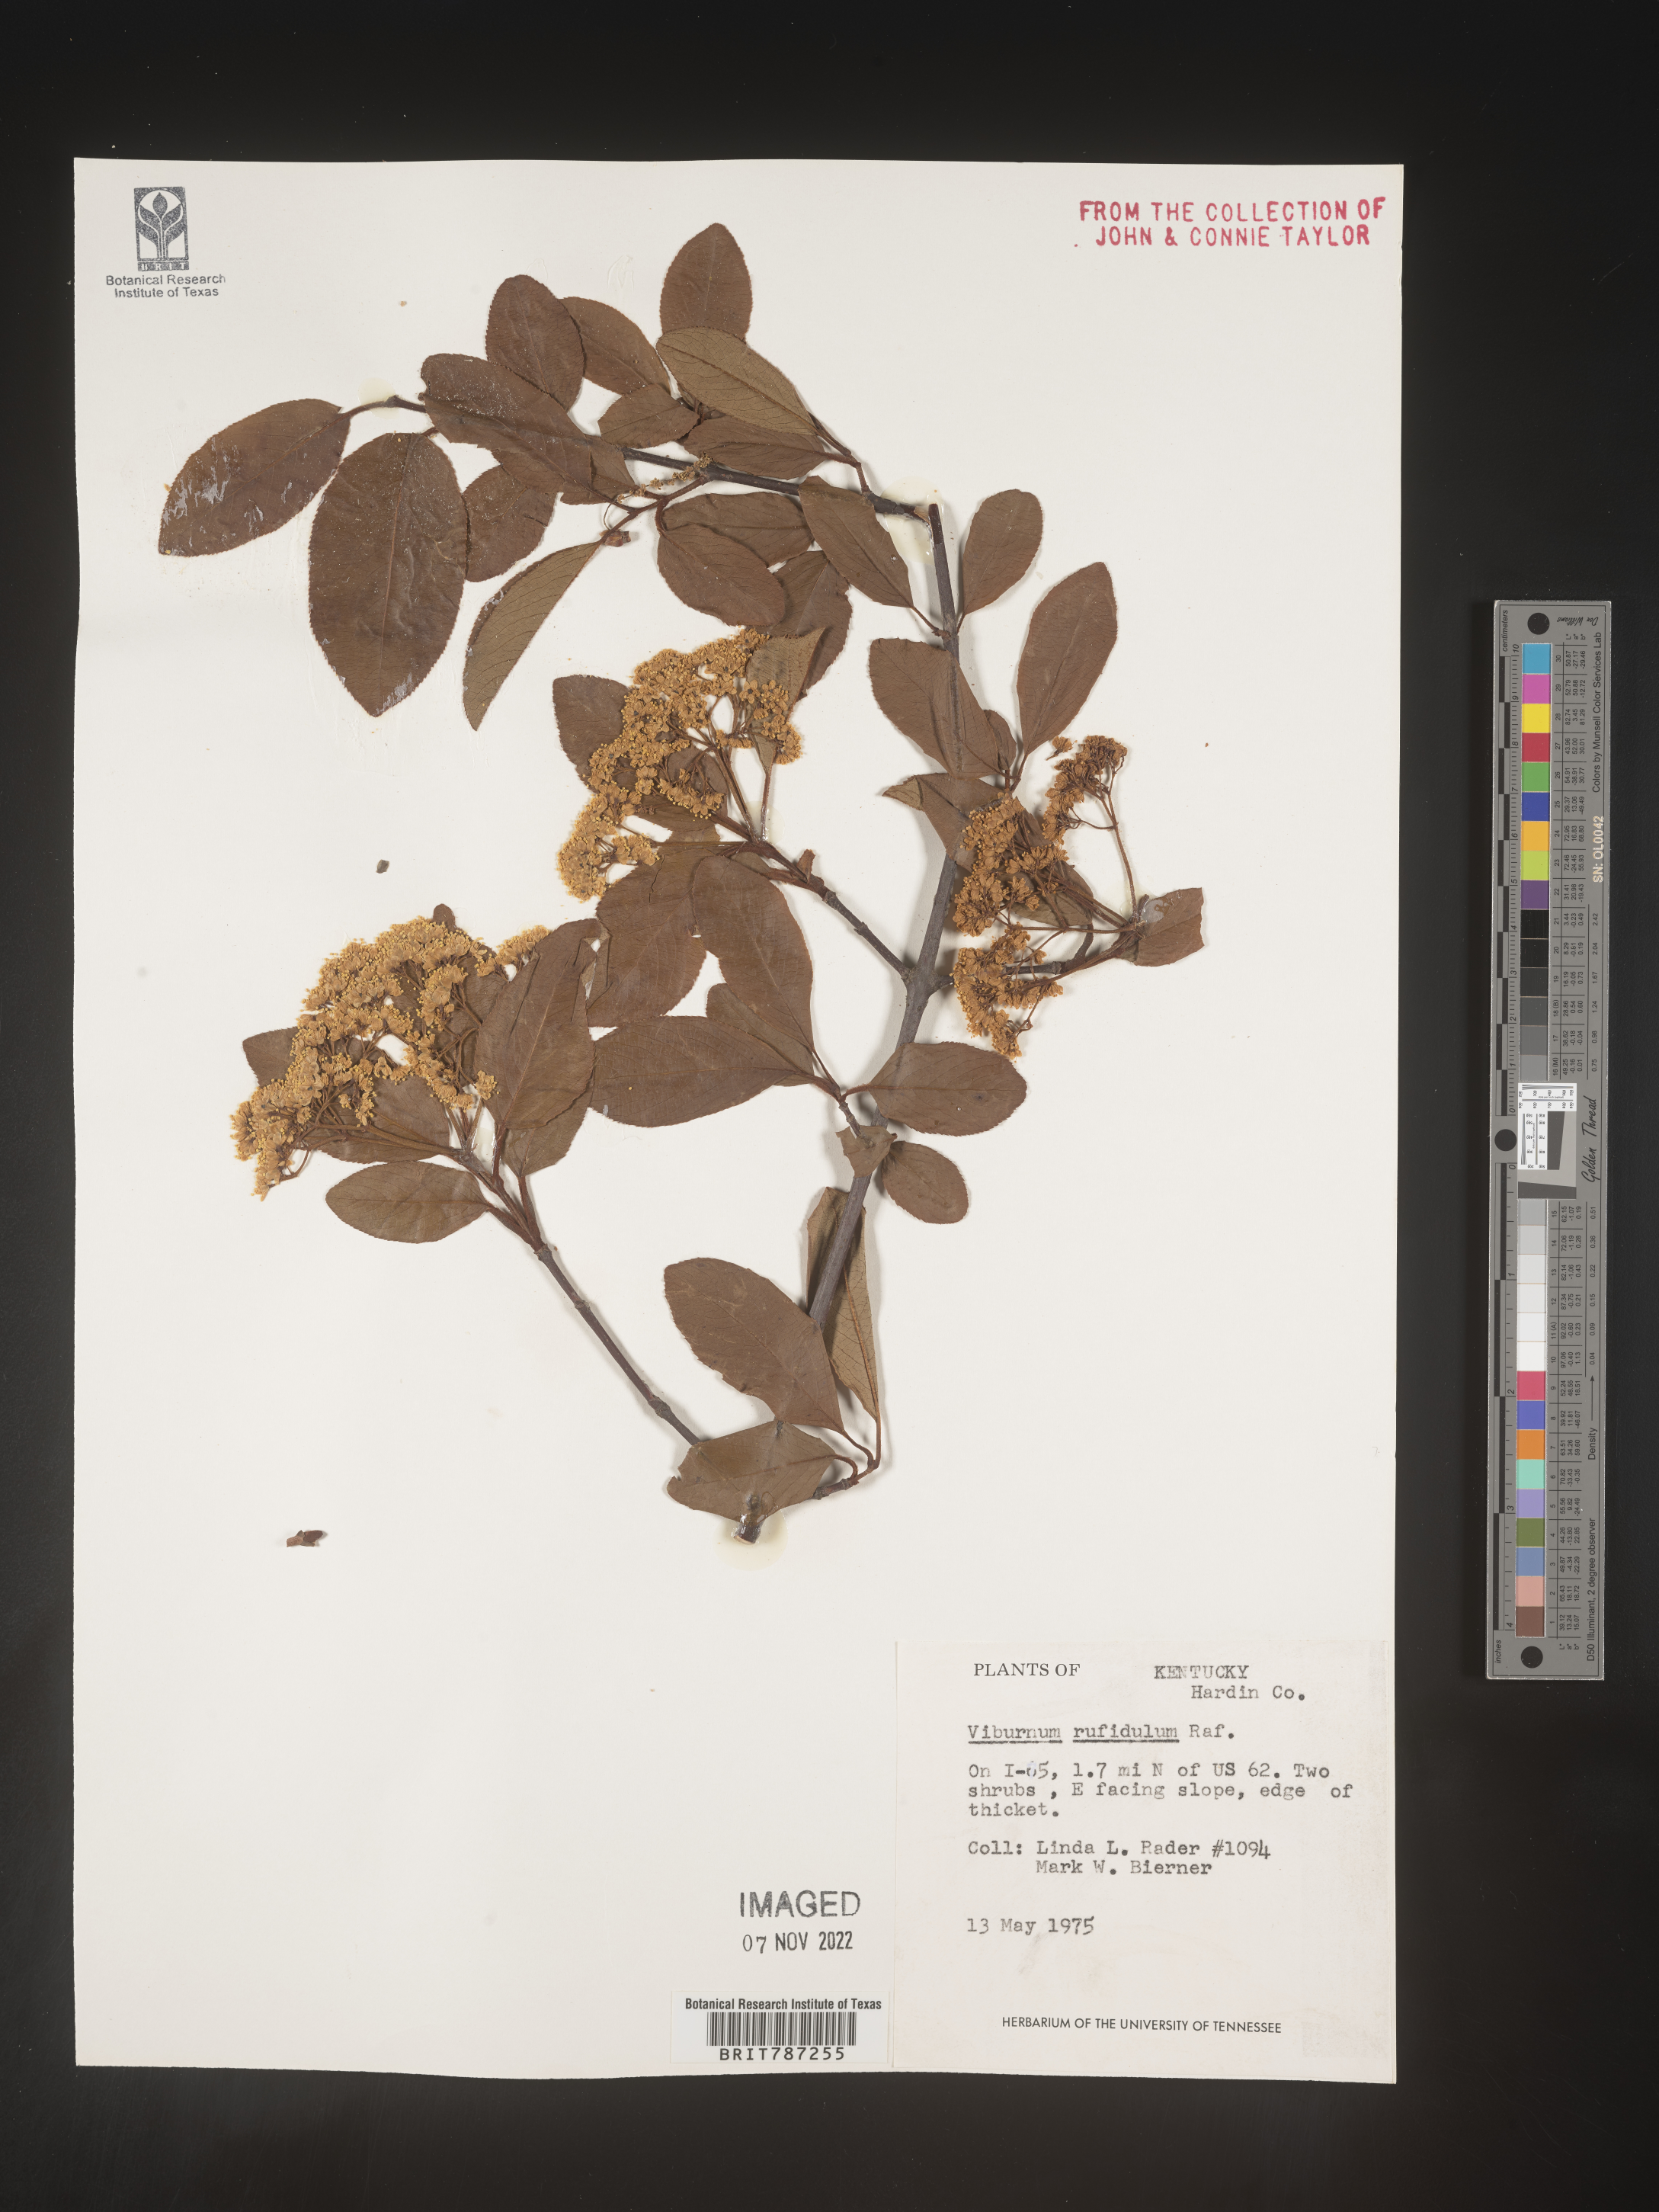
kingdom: Plantae
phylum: Tracheophyta
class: Magnoliopsida
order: Dipsacales
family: Viburnaceae
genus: Viburnum
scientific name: Viburnum rufidulum
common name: Blue haw
